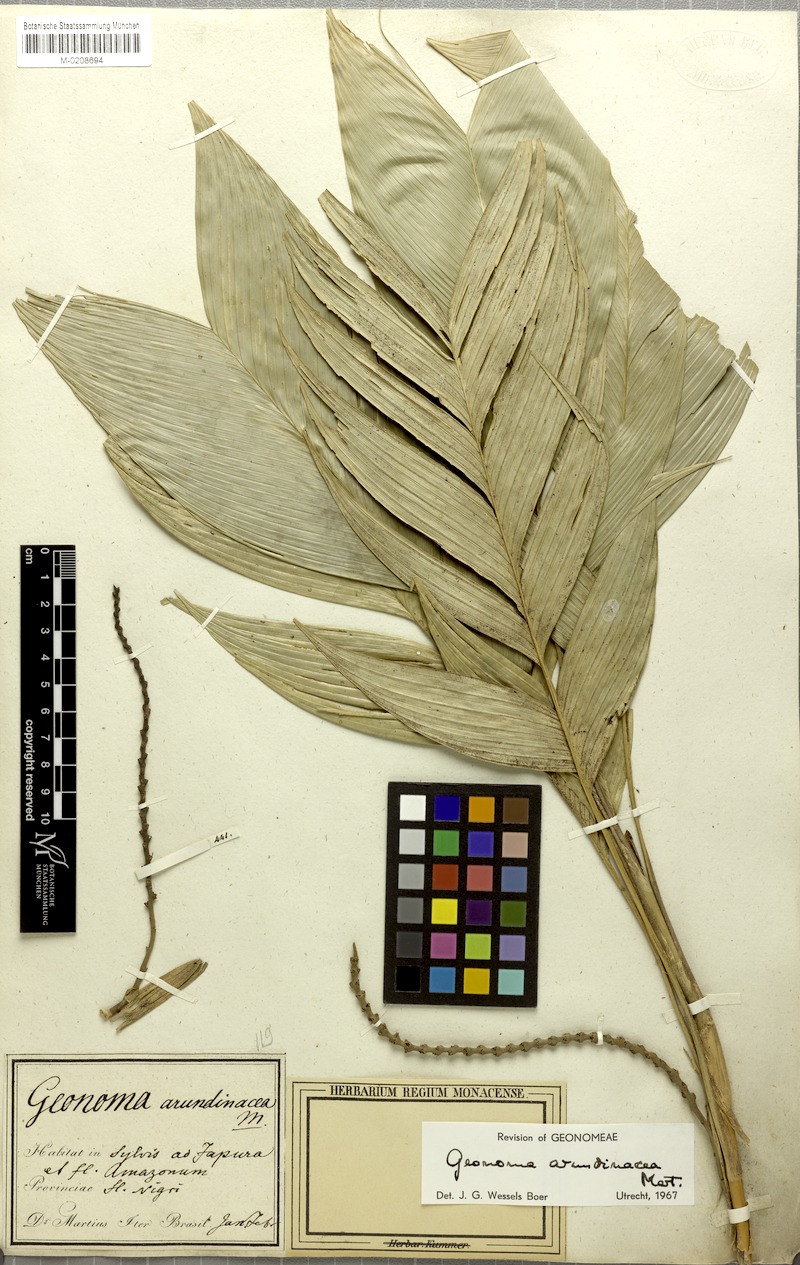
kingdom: Plantae
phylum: Tracheophyta
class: Liliopsida
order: Arecales
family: Arecaceae
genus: Geonoma
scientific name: Geonoma stricta
